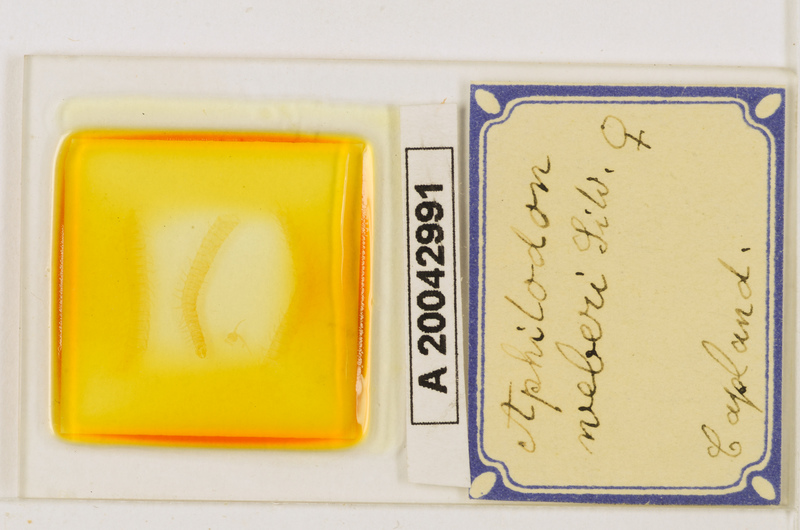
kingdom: Animalia
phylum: Arthropoda
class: Chilopoda
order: Geophilomorpha
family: Aphilodontidae
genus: Aphilodon
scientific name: Aphilodon weberi
